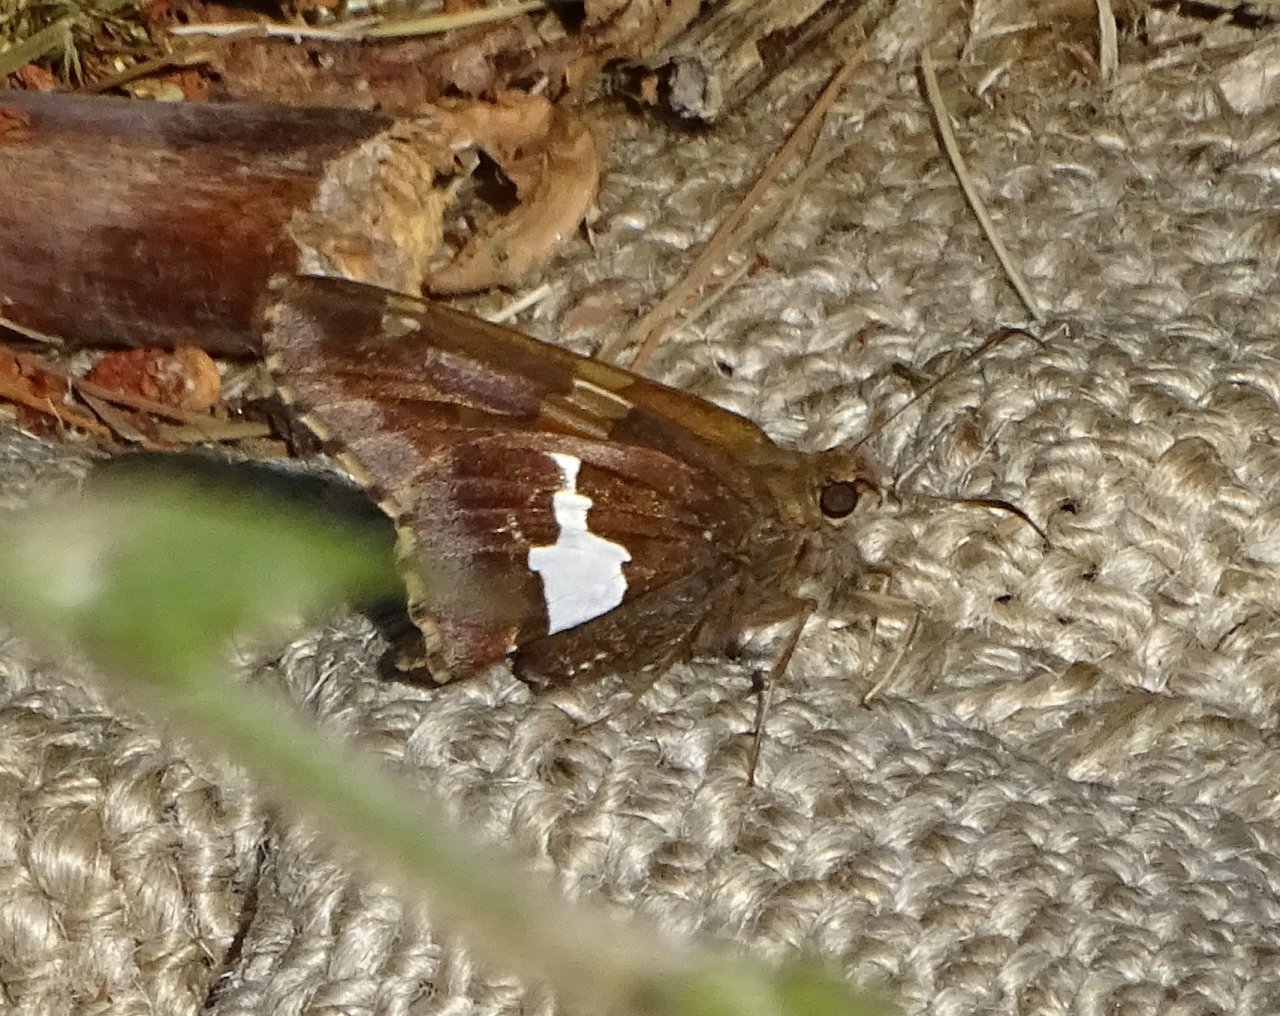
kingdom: Animalia
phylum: Arthropoda
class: Insecta
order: Lepidoptera
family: Hesperiidae
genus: Epargyreus
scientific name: Epargyreus clarus
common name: Silver-spotted Skipper
